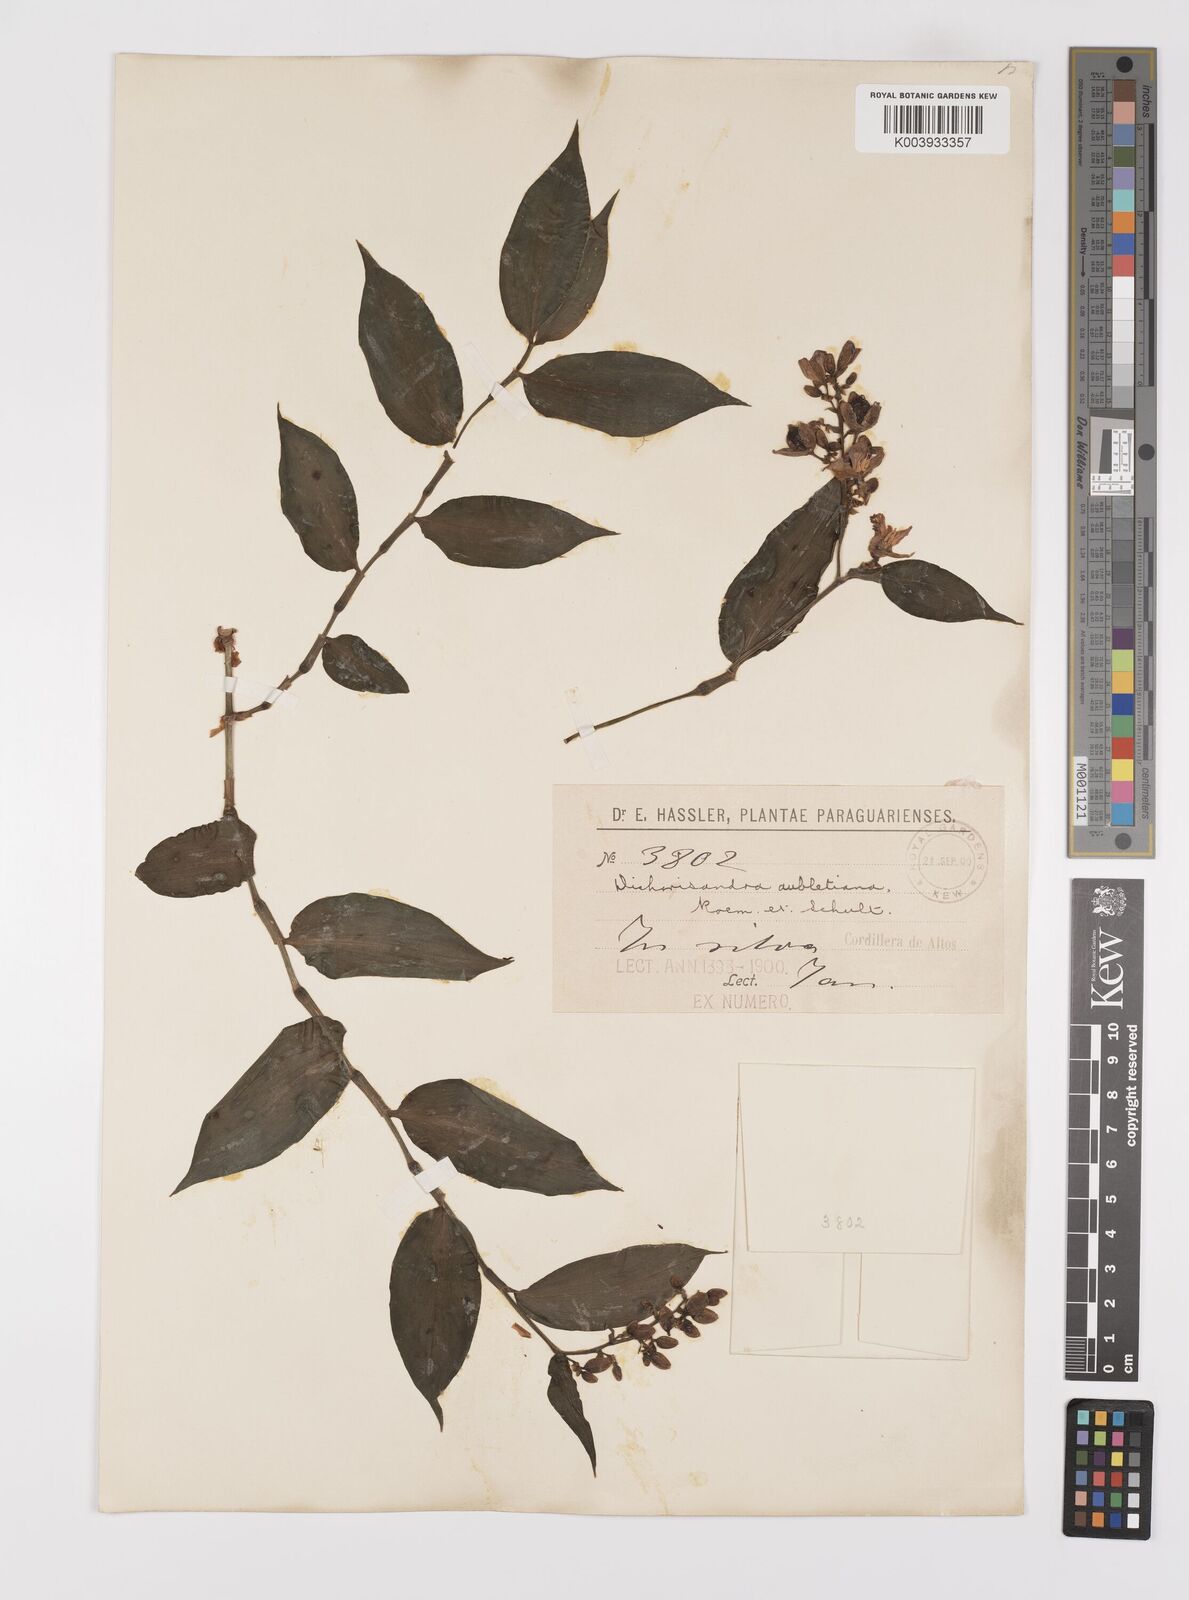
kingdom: Plantae
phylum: Tracheophyta
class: Liliopsida
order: Commelinales
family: Commelinaceae
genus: Dichorisandra
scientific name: Dichorisandra hexandra
